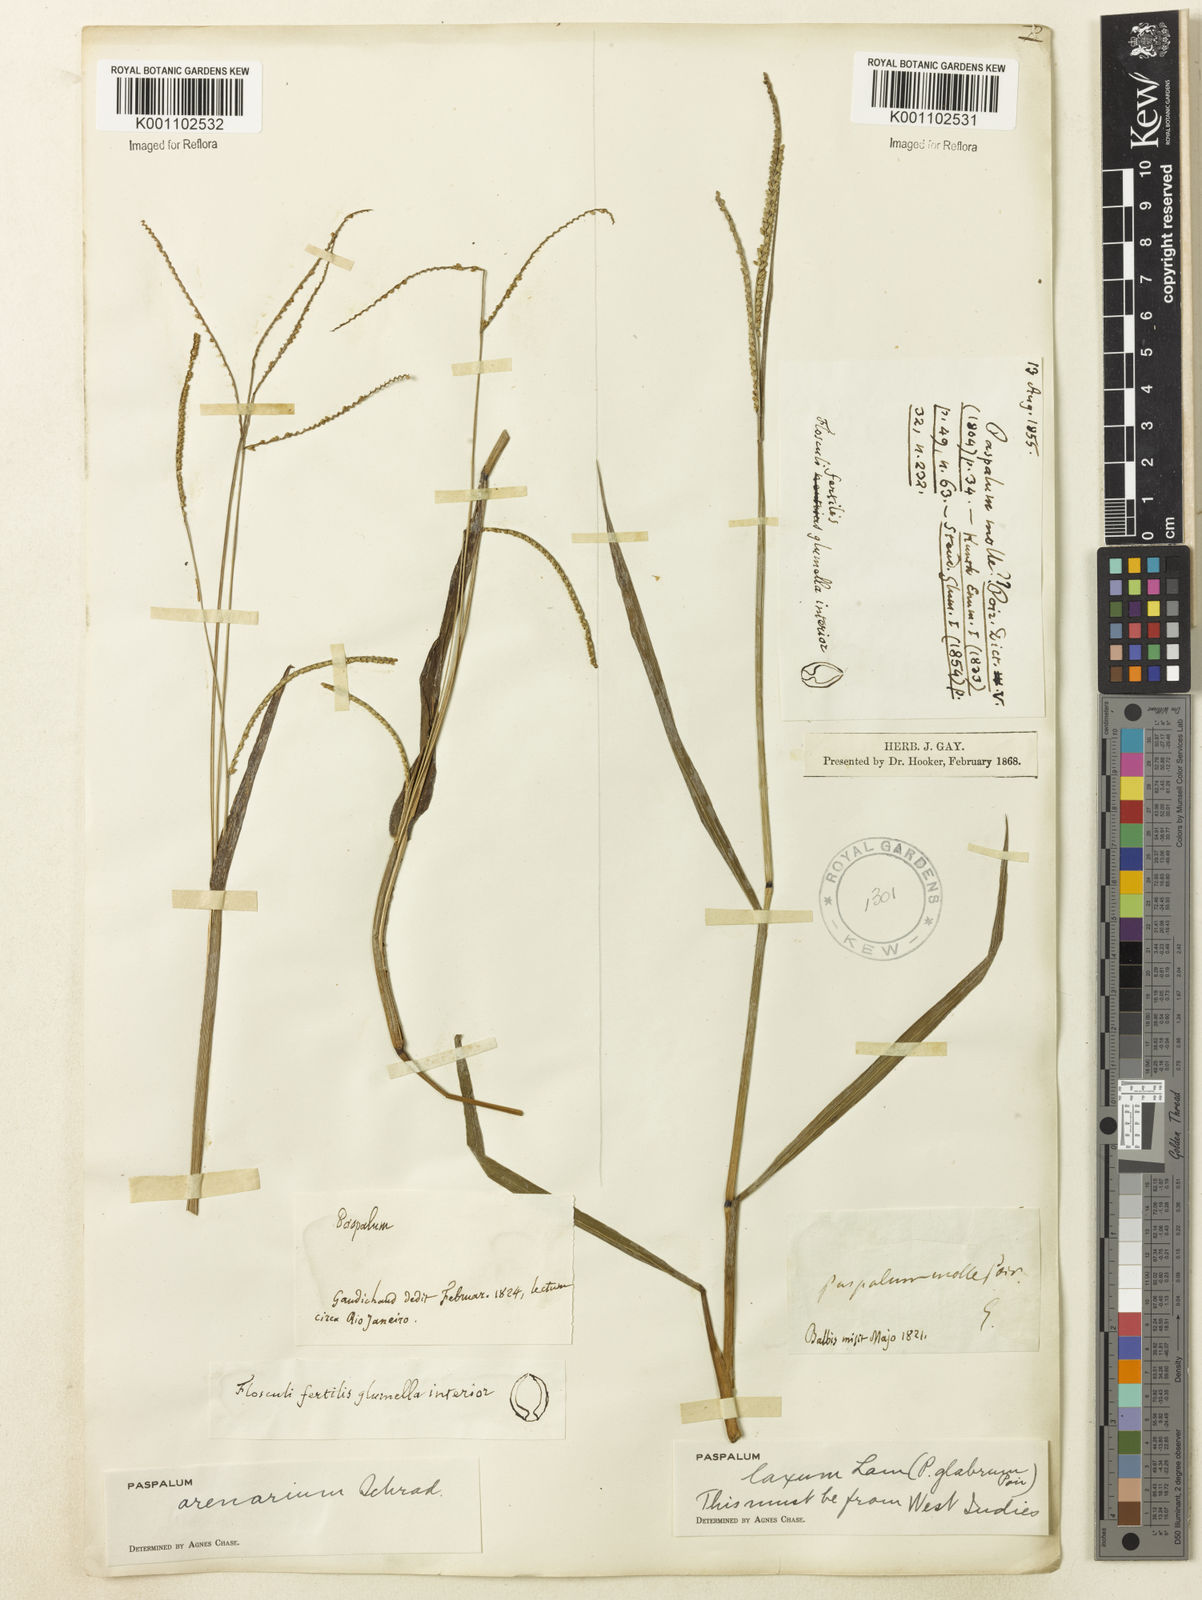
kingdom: Plantae
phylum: Tracheophyta
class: Liliopsida
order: Poales
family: Poaceae
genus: Paspalum
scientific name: Paspalum arenarium
